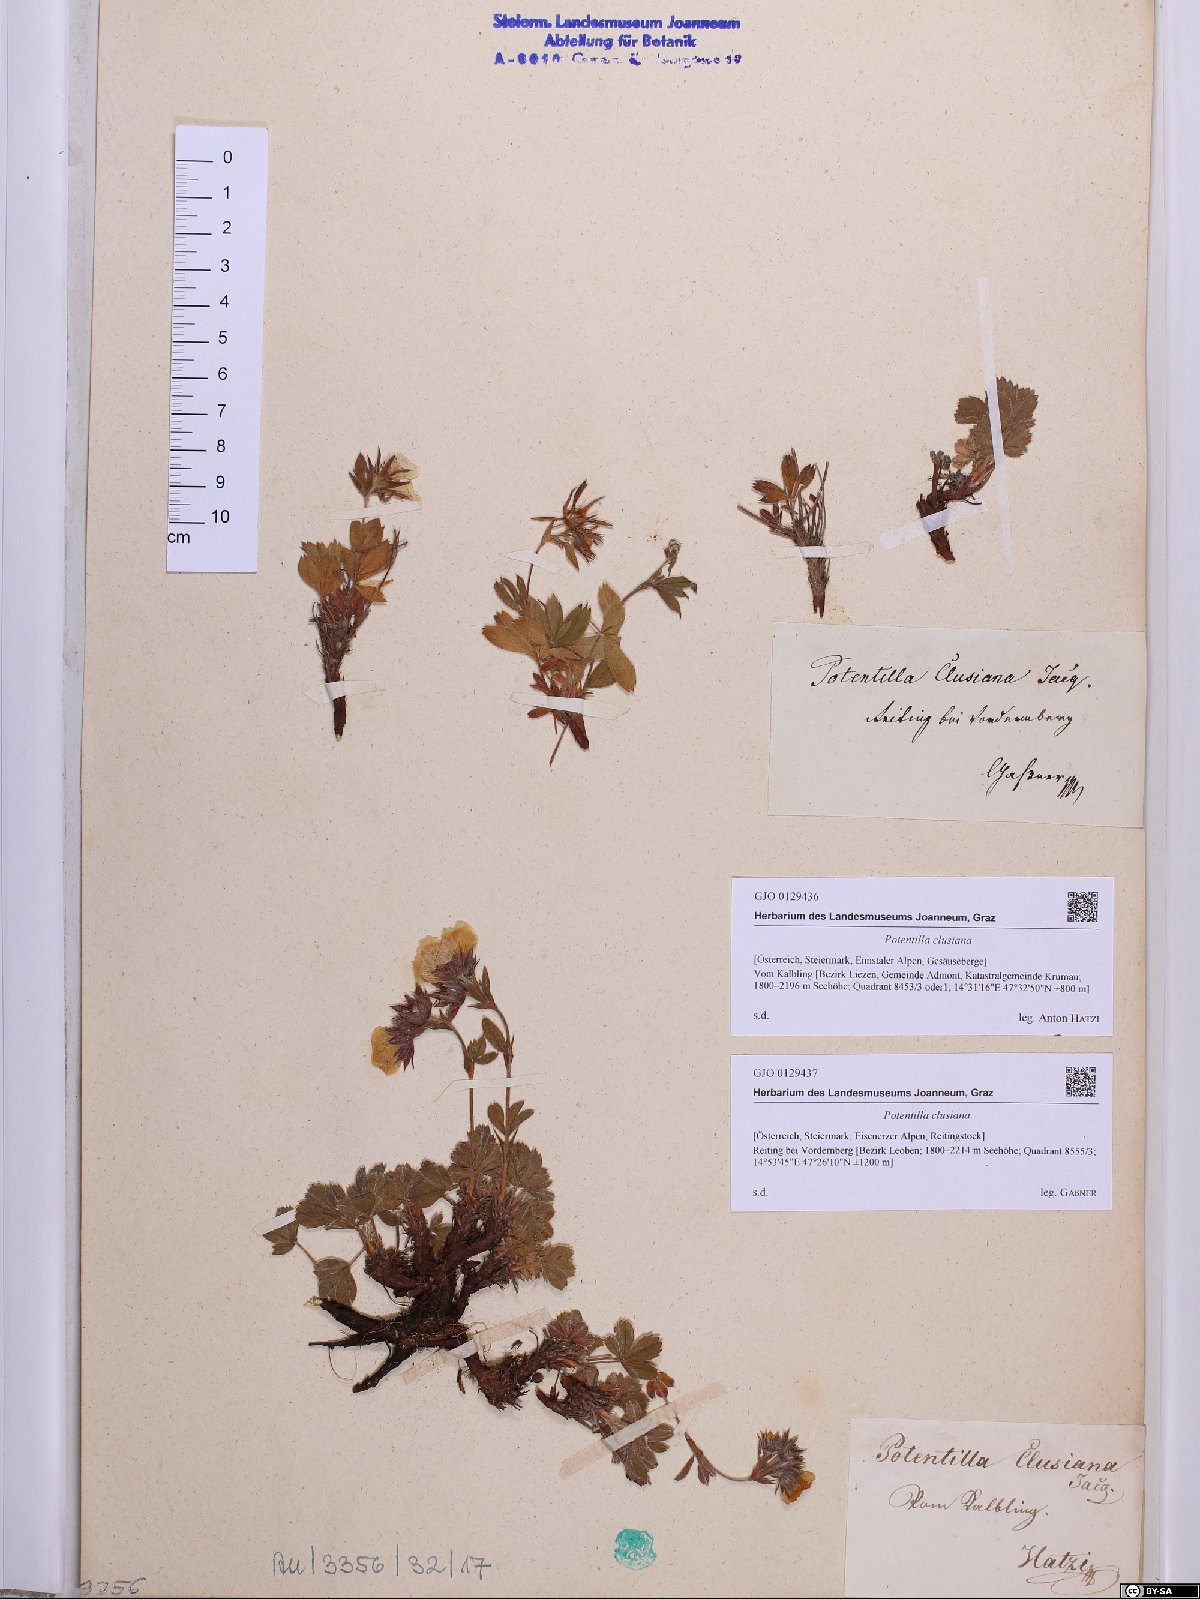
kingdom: Plantae
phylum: Tracheophyta
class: Magnoliopsida
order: Rosales
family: Rosaceae
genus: Potentilla
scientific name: Potentilla clusiana
